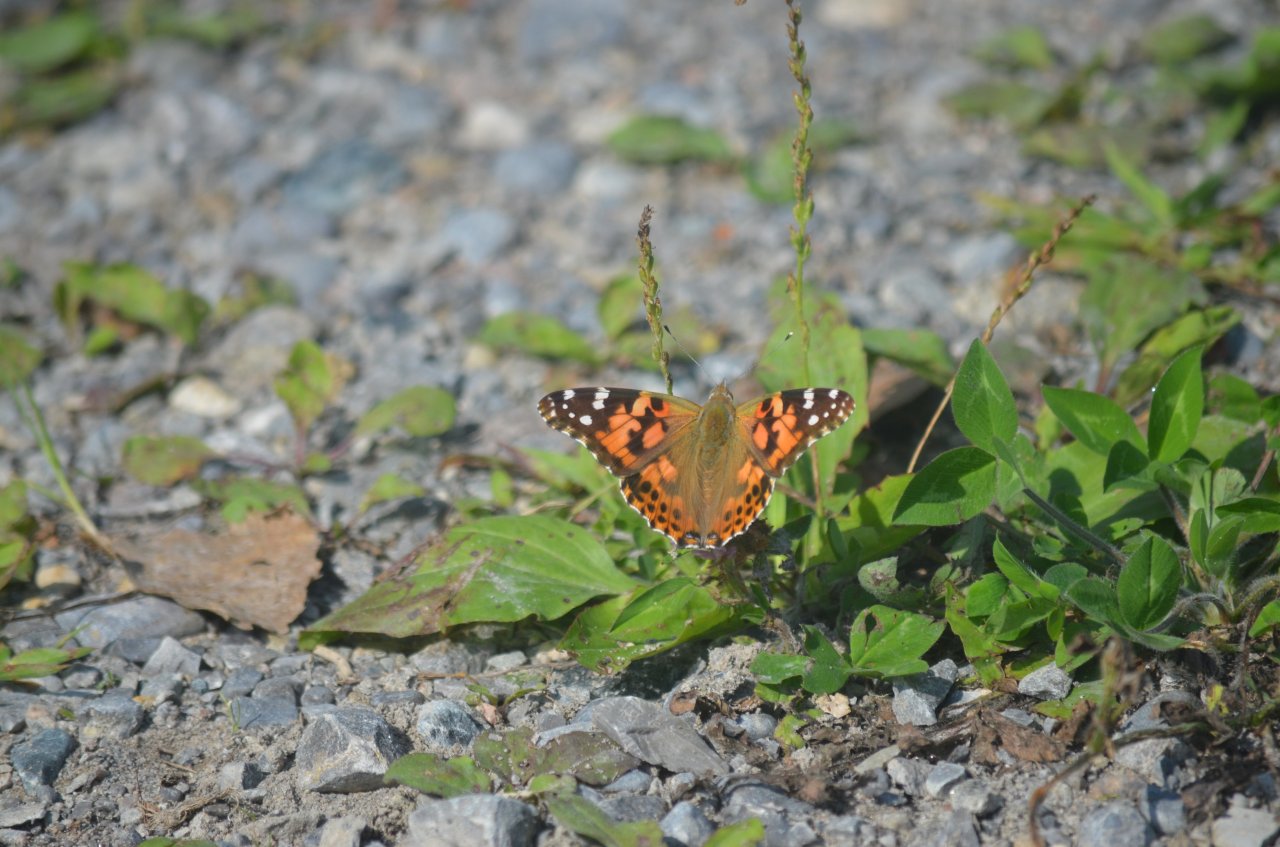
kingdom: Animalia
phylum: Arthropoda
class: Insecta
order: Lepidoptera
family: Nymphalidae
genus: Vanessa
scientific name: Vanessa cardui
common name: Painted Lady
